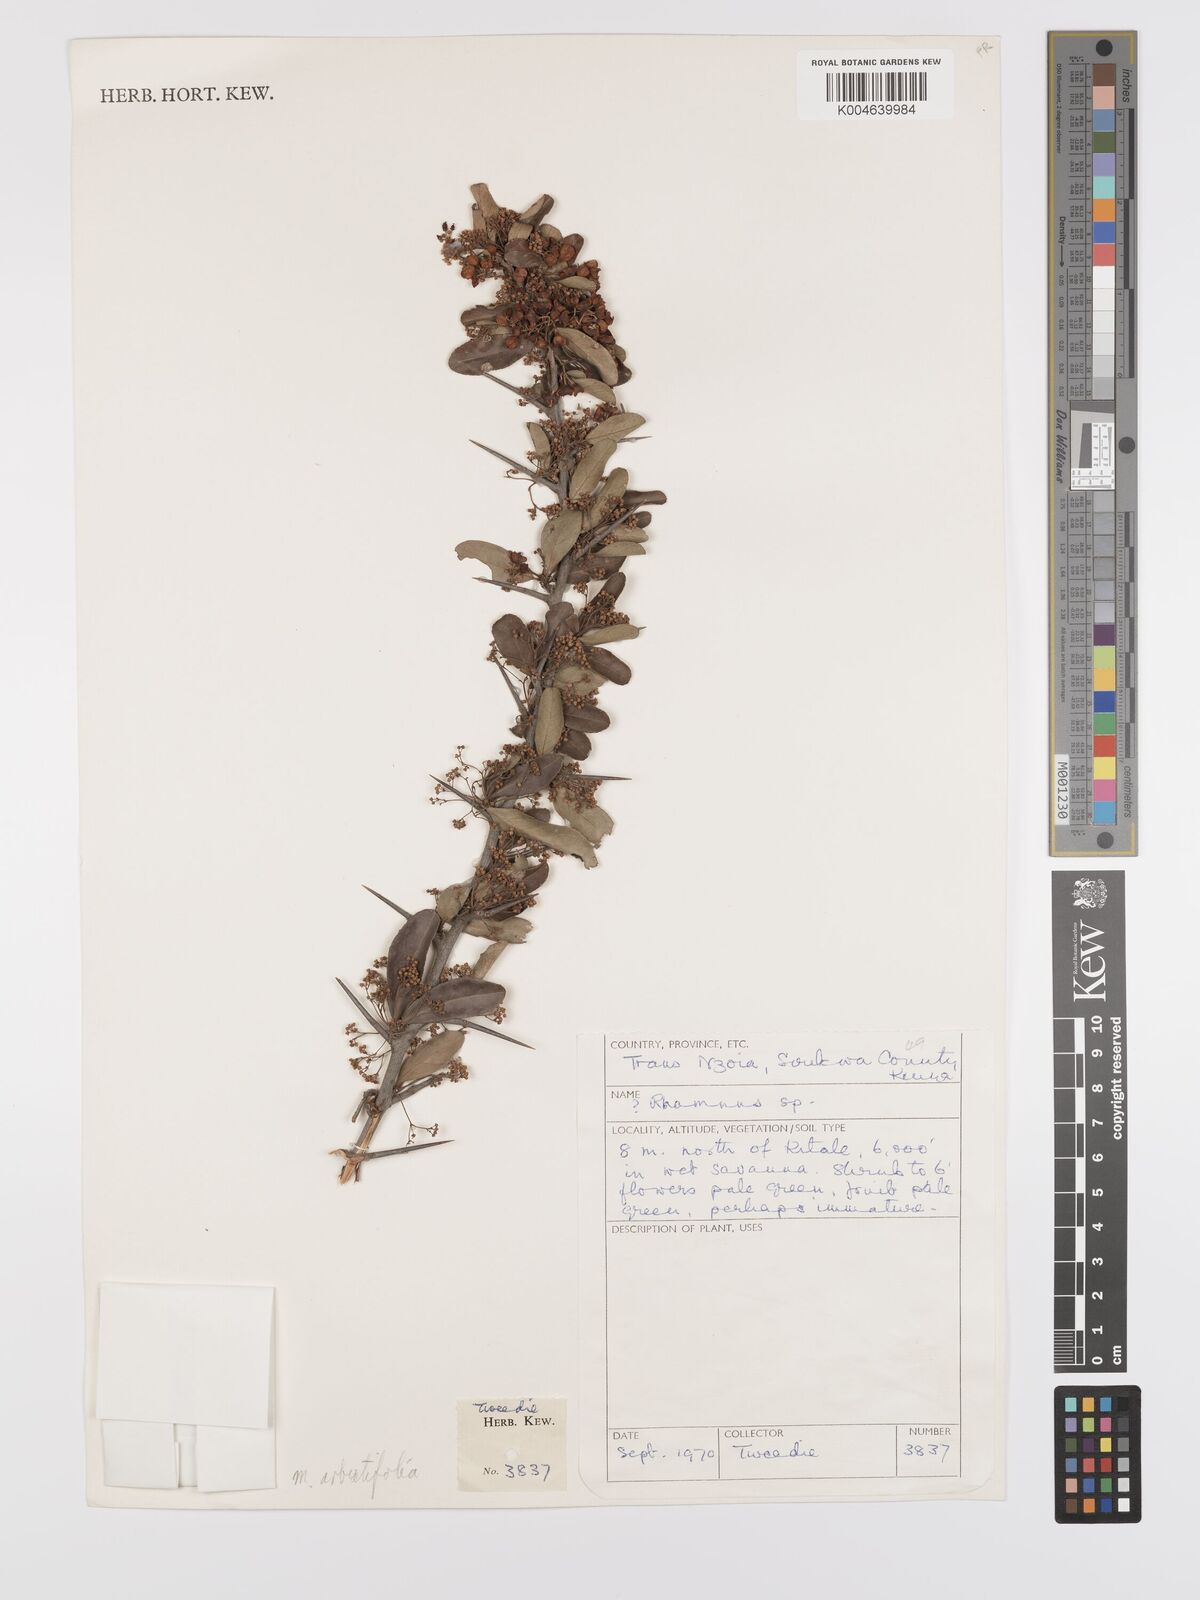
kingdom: Plantae
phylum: Tracheophyta
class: Magnoliopsida
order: Celastrales
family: Celastraceae
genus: Gymnosporia
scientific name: Gymnosporia arbutifolia
